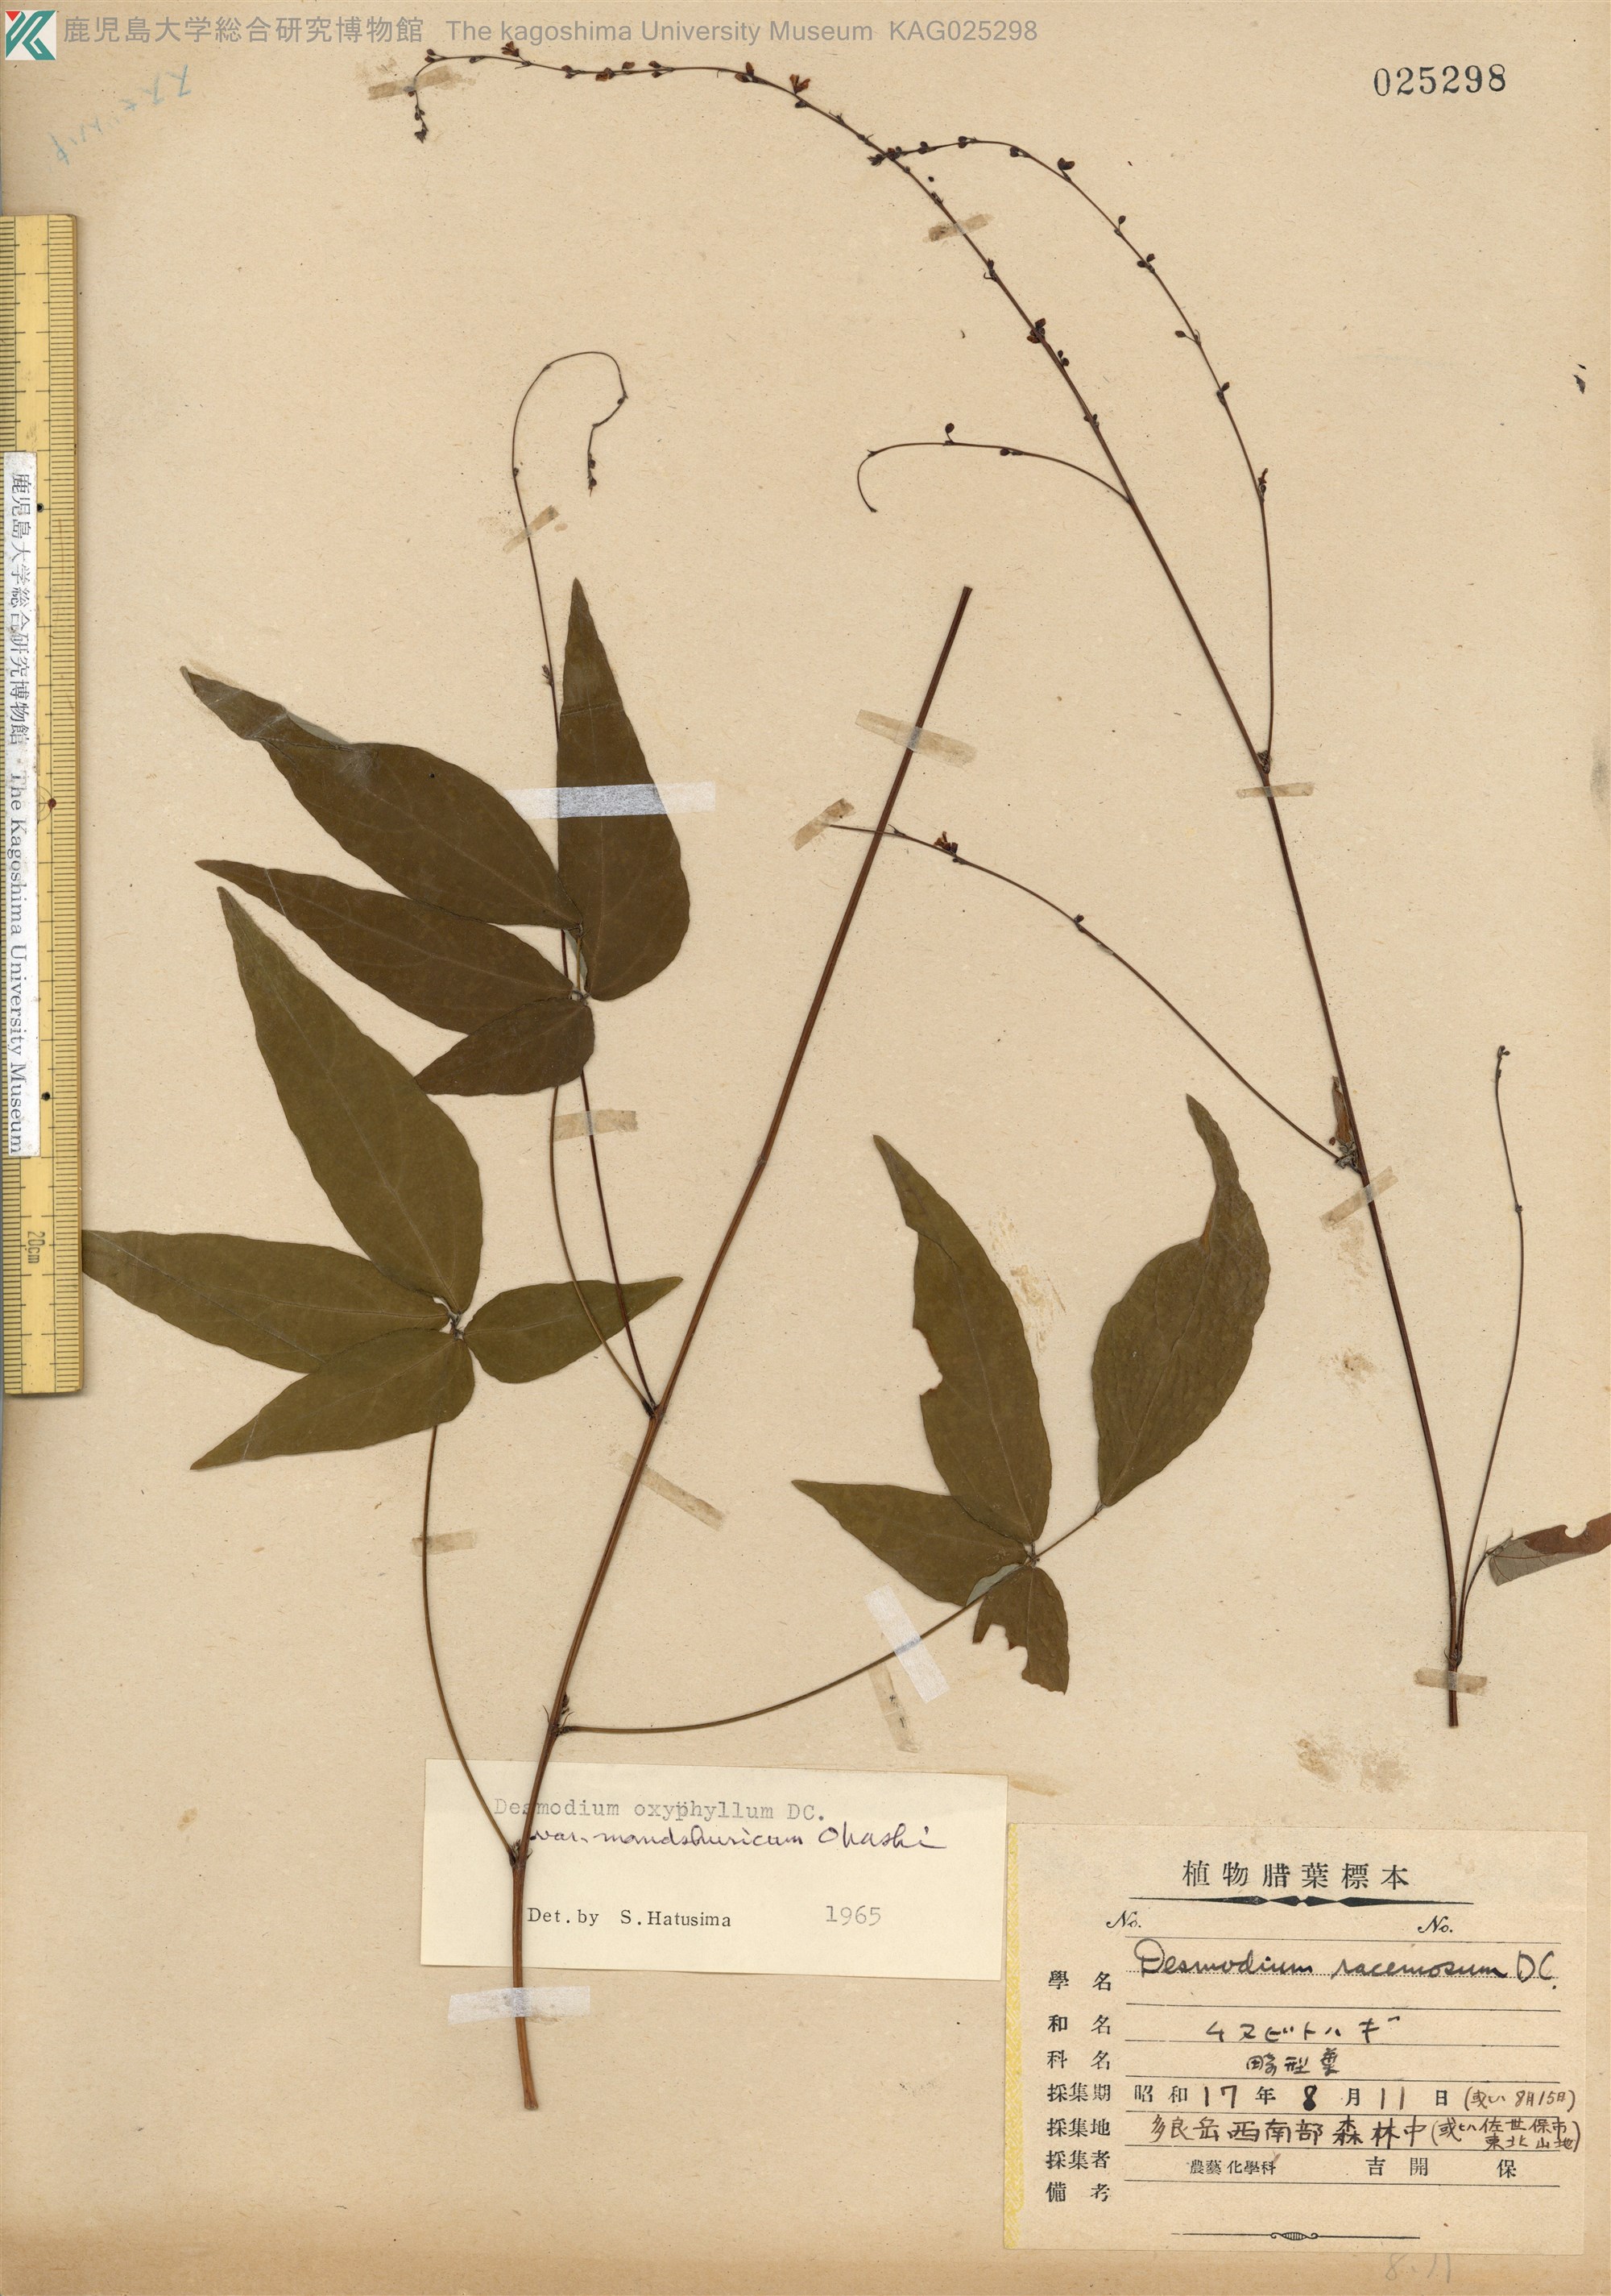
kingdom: Plantae
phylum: Tracheophyta
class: Magnoliopsida
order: Fabales
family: Fabaceae
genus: Hylodesmum
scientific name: Hylodesmum podocarpum
